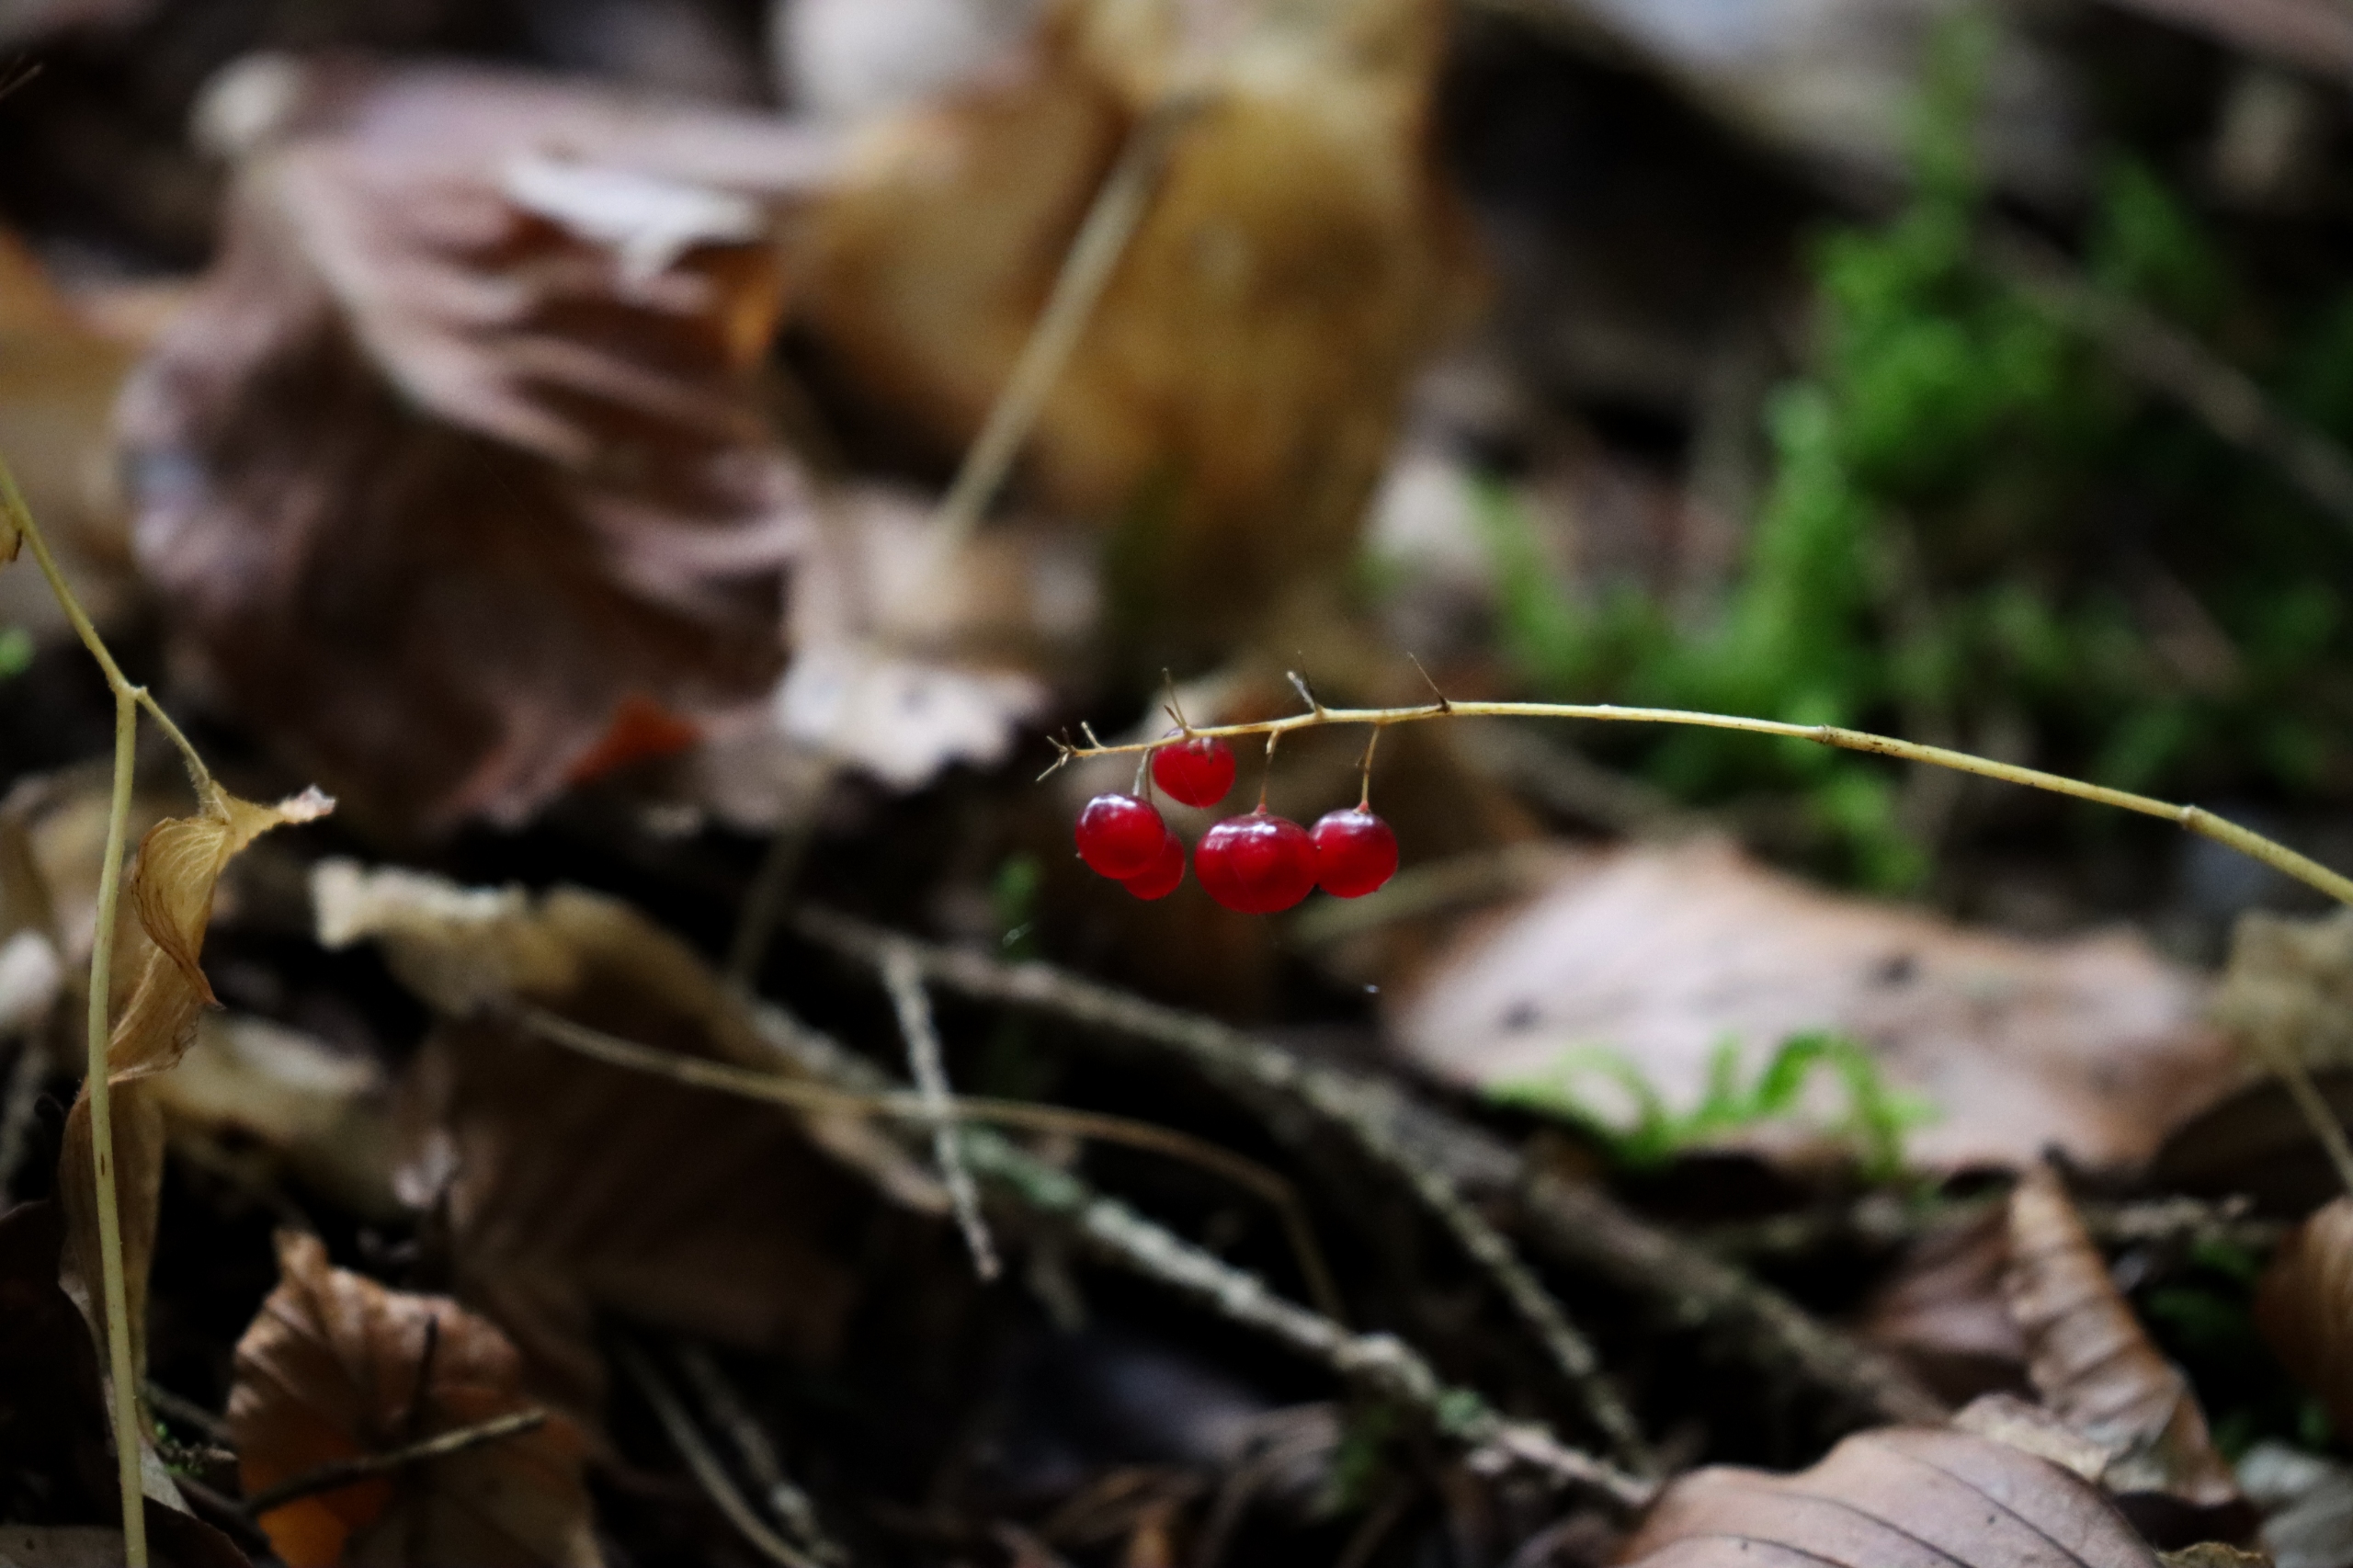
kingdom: Plantae
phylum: Tracheophyta
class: Liliopsida
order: Asparagales
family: Asparagaceae
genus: Convallaria
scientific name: Convallaria majalis
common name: Liljekonval
